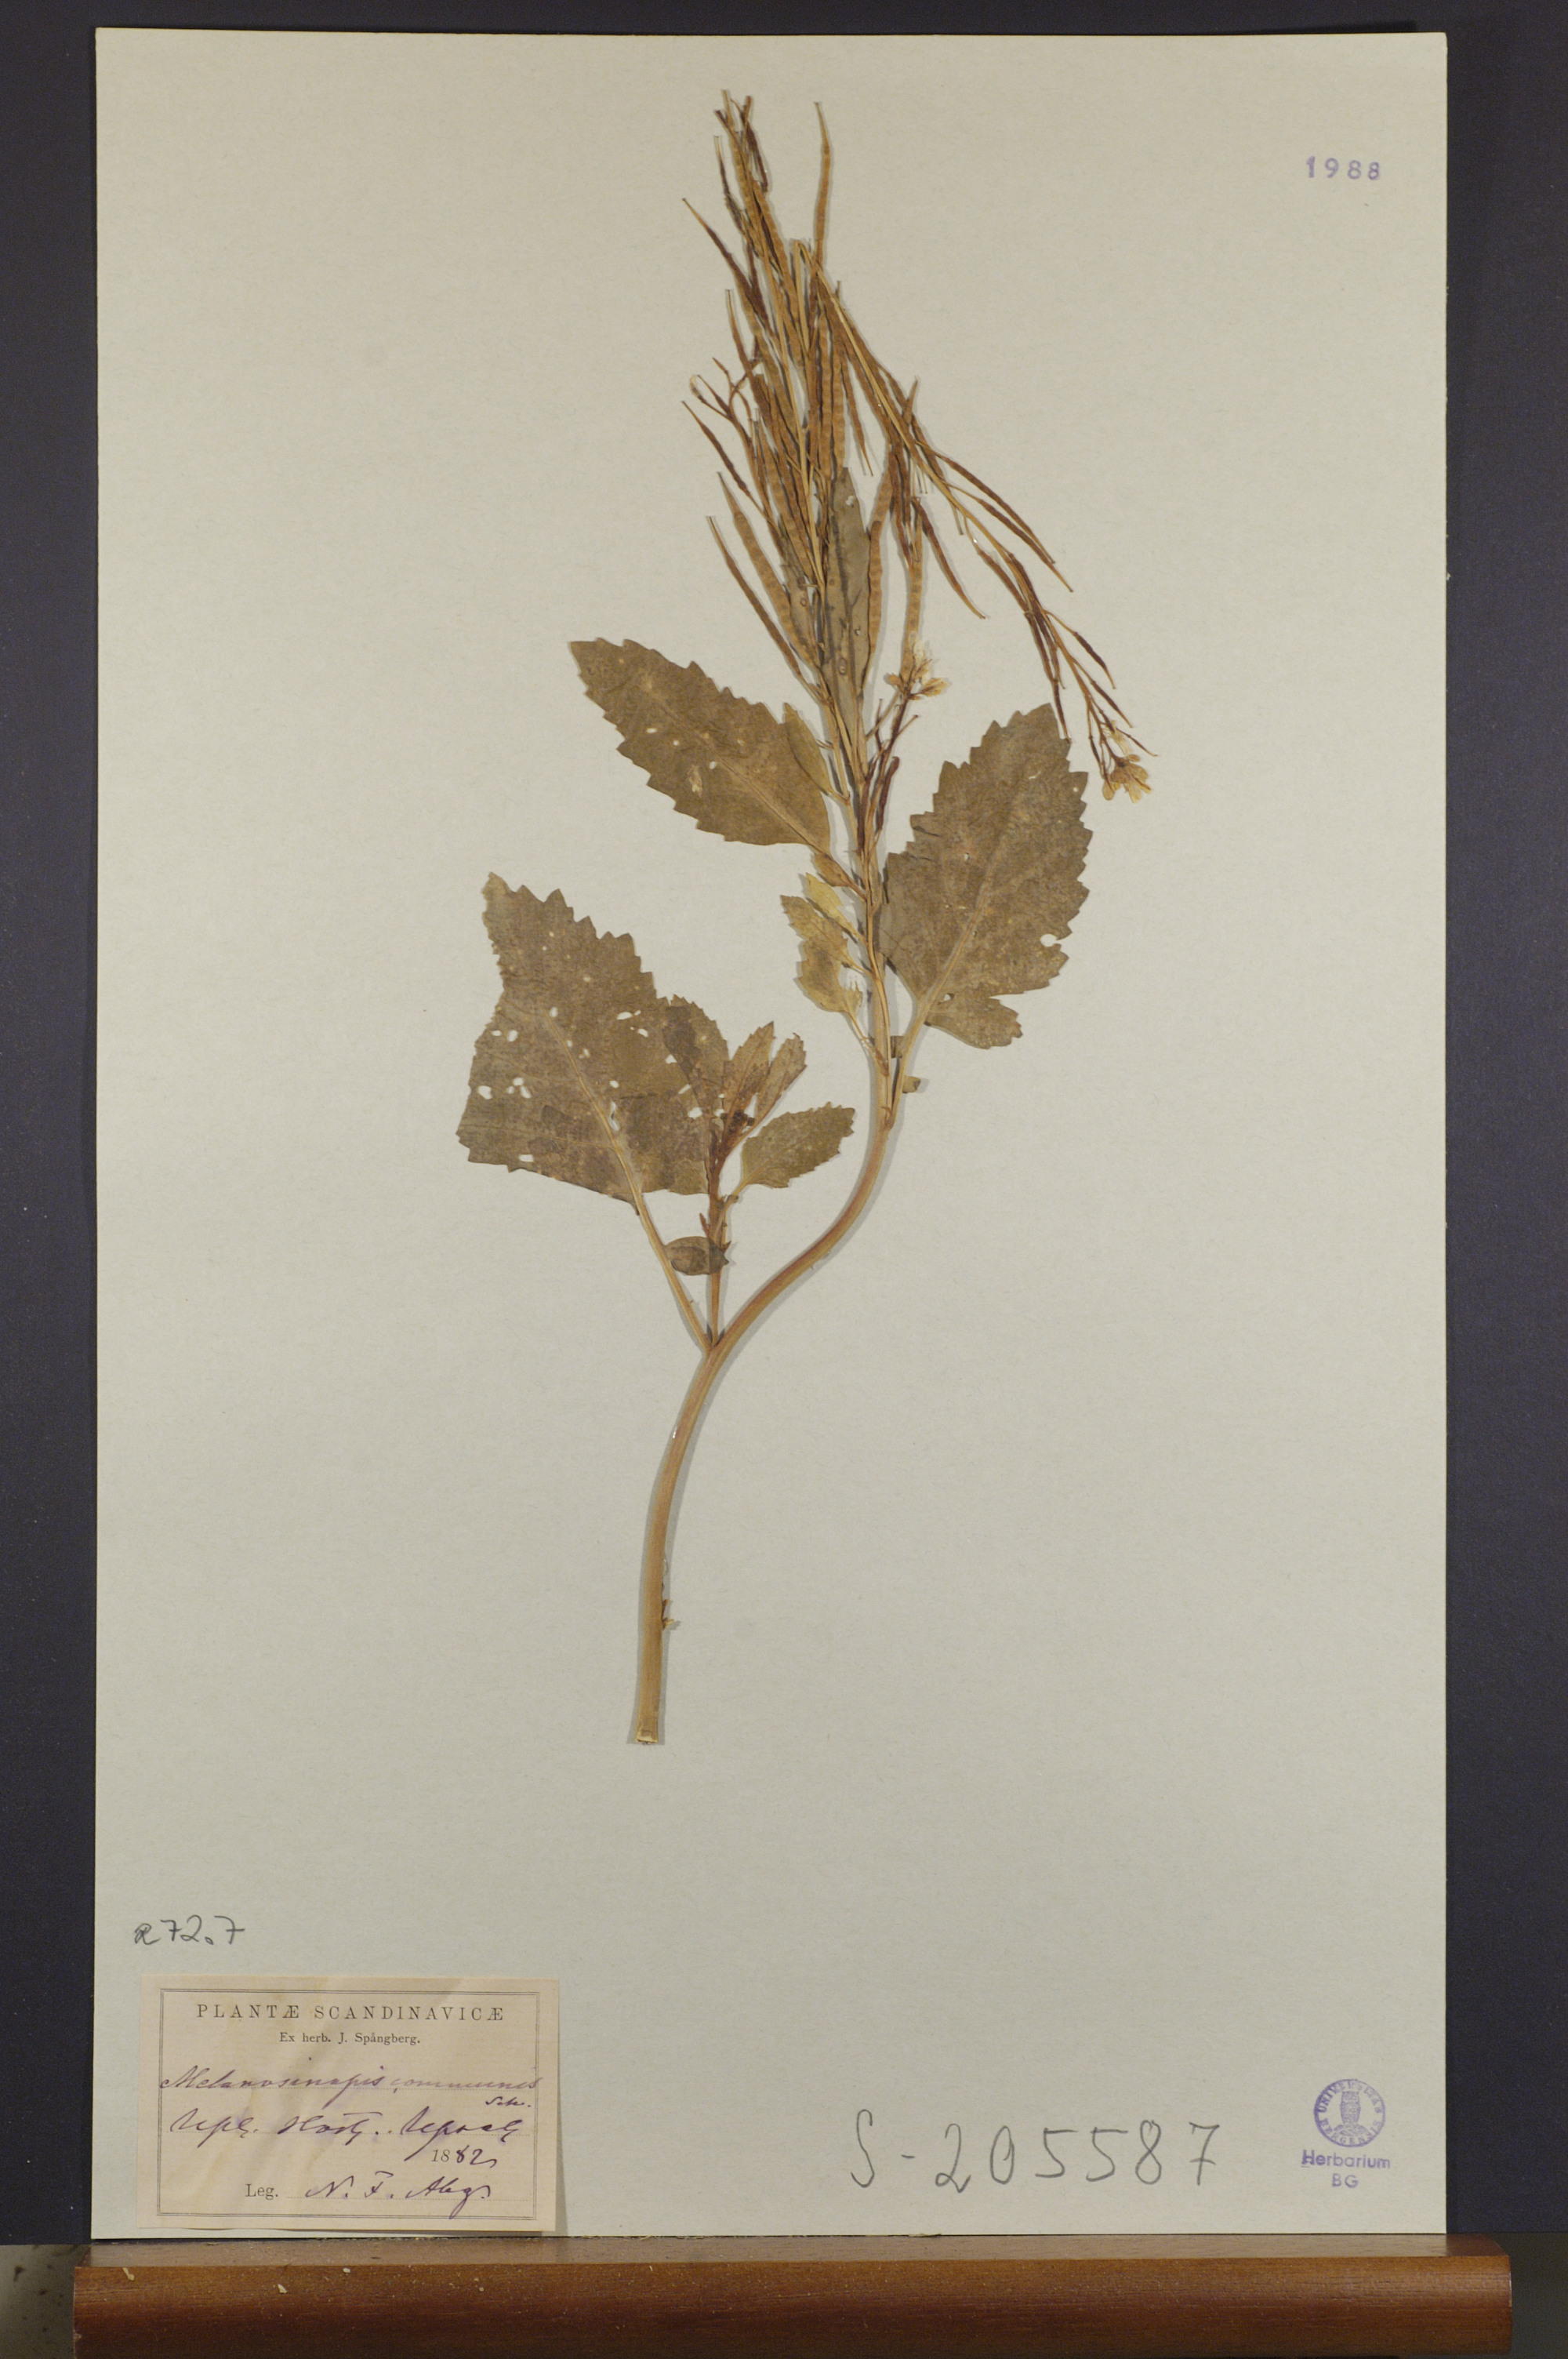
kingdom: Plantae
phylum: Tracheophyta
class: Magnoliopsida
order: Brassicales
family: Brassicaceae
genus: Brassica
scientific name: Brassica nigra
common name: Black mustard
